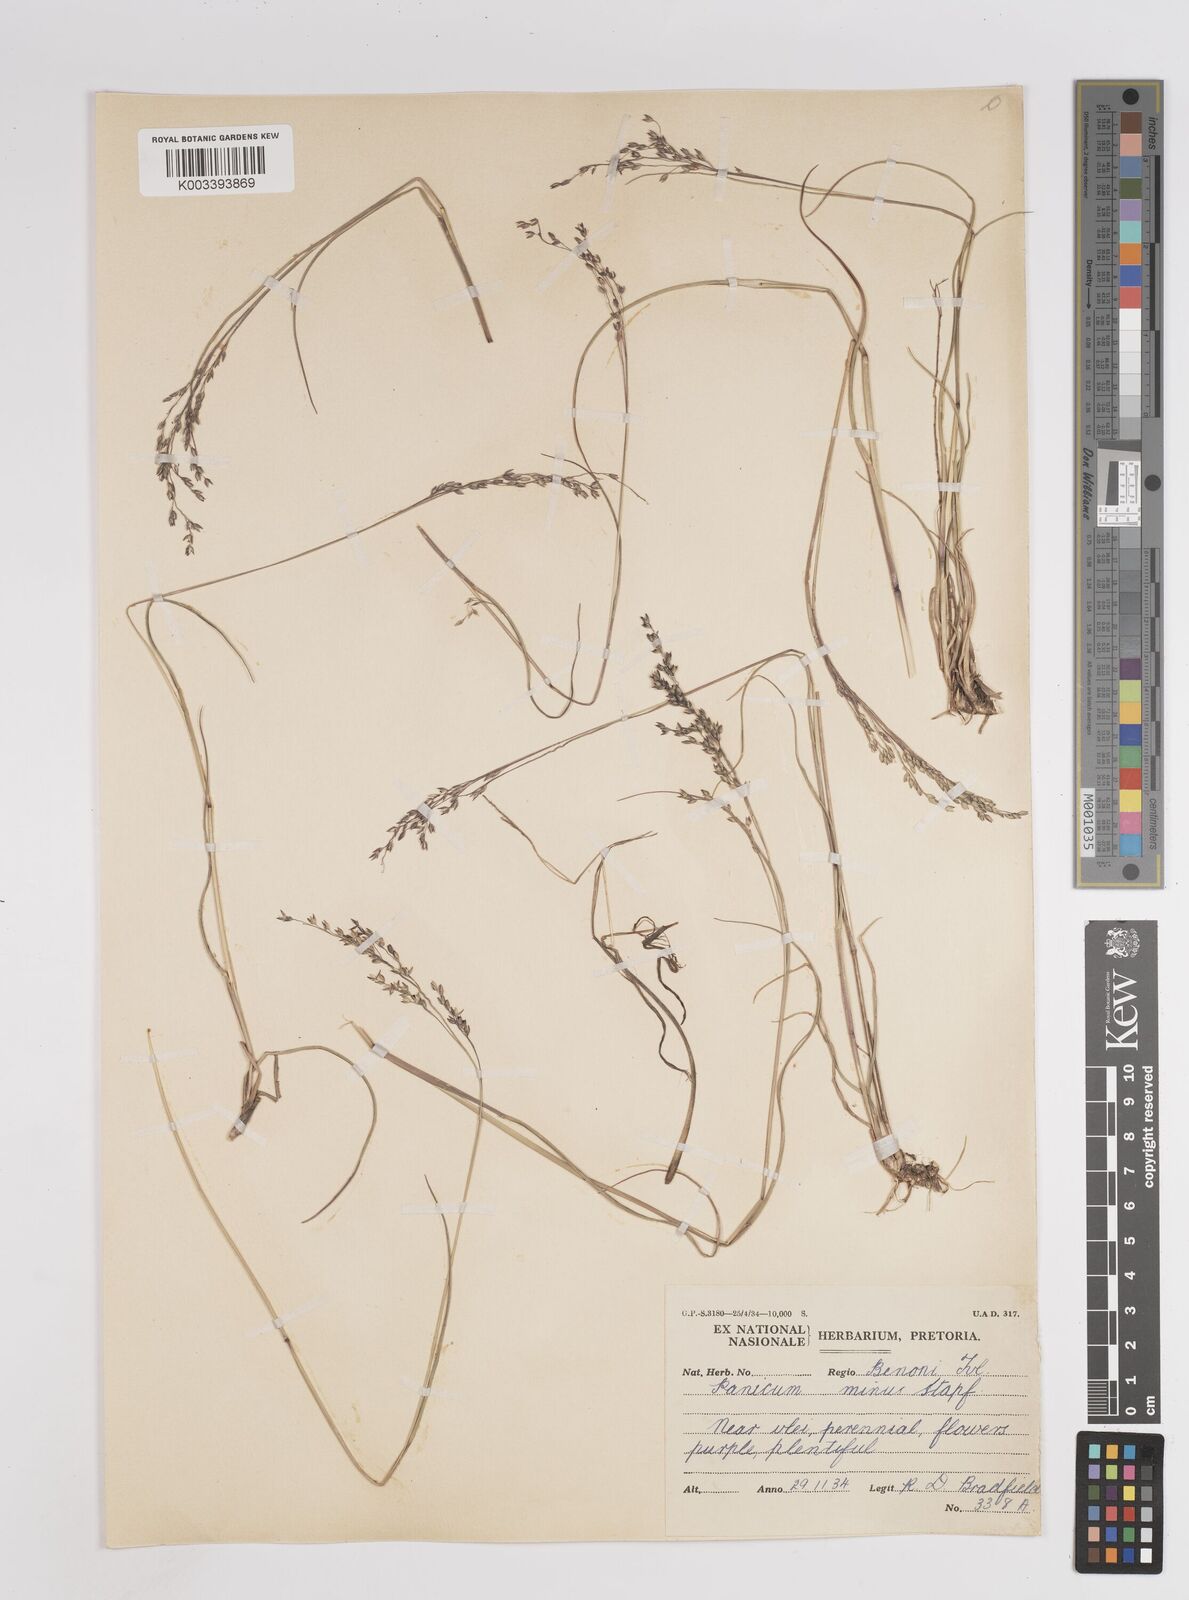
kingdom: Plantae
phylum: Tracheophyta
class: Liliopsida
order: Poales
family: Poaceae
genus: Panicum
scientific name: Panicum stapfianum
